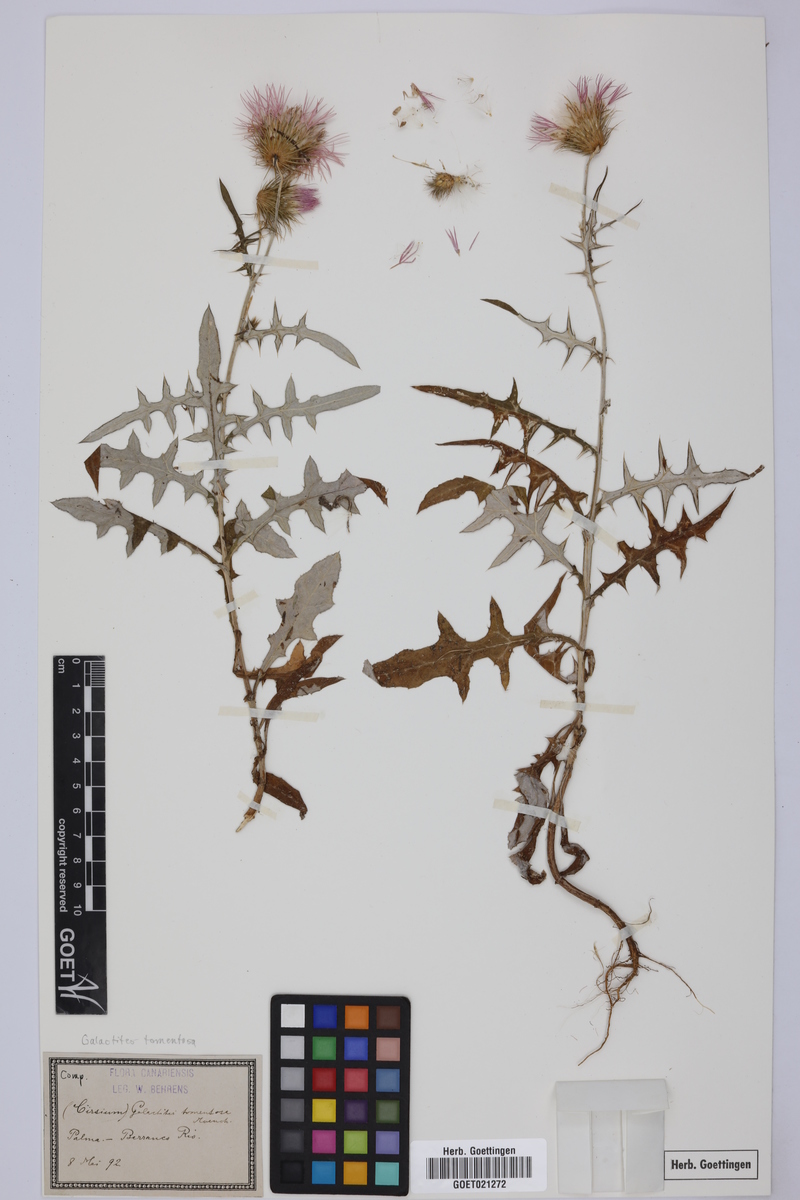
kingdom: Plantae
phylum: Tracheophyta
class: Magnoliopsida
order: Asterales
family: Asteraceae
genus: Galactites
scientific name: Galactites tomentosa
